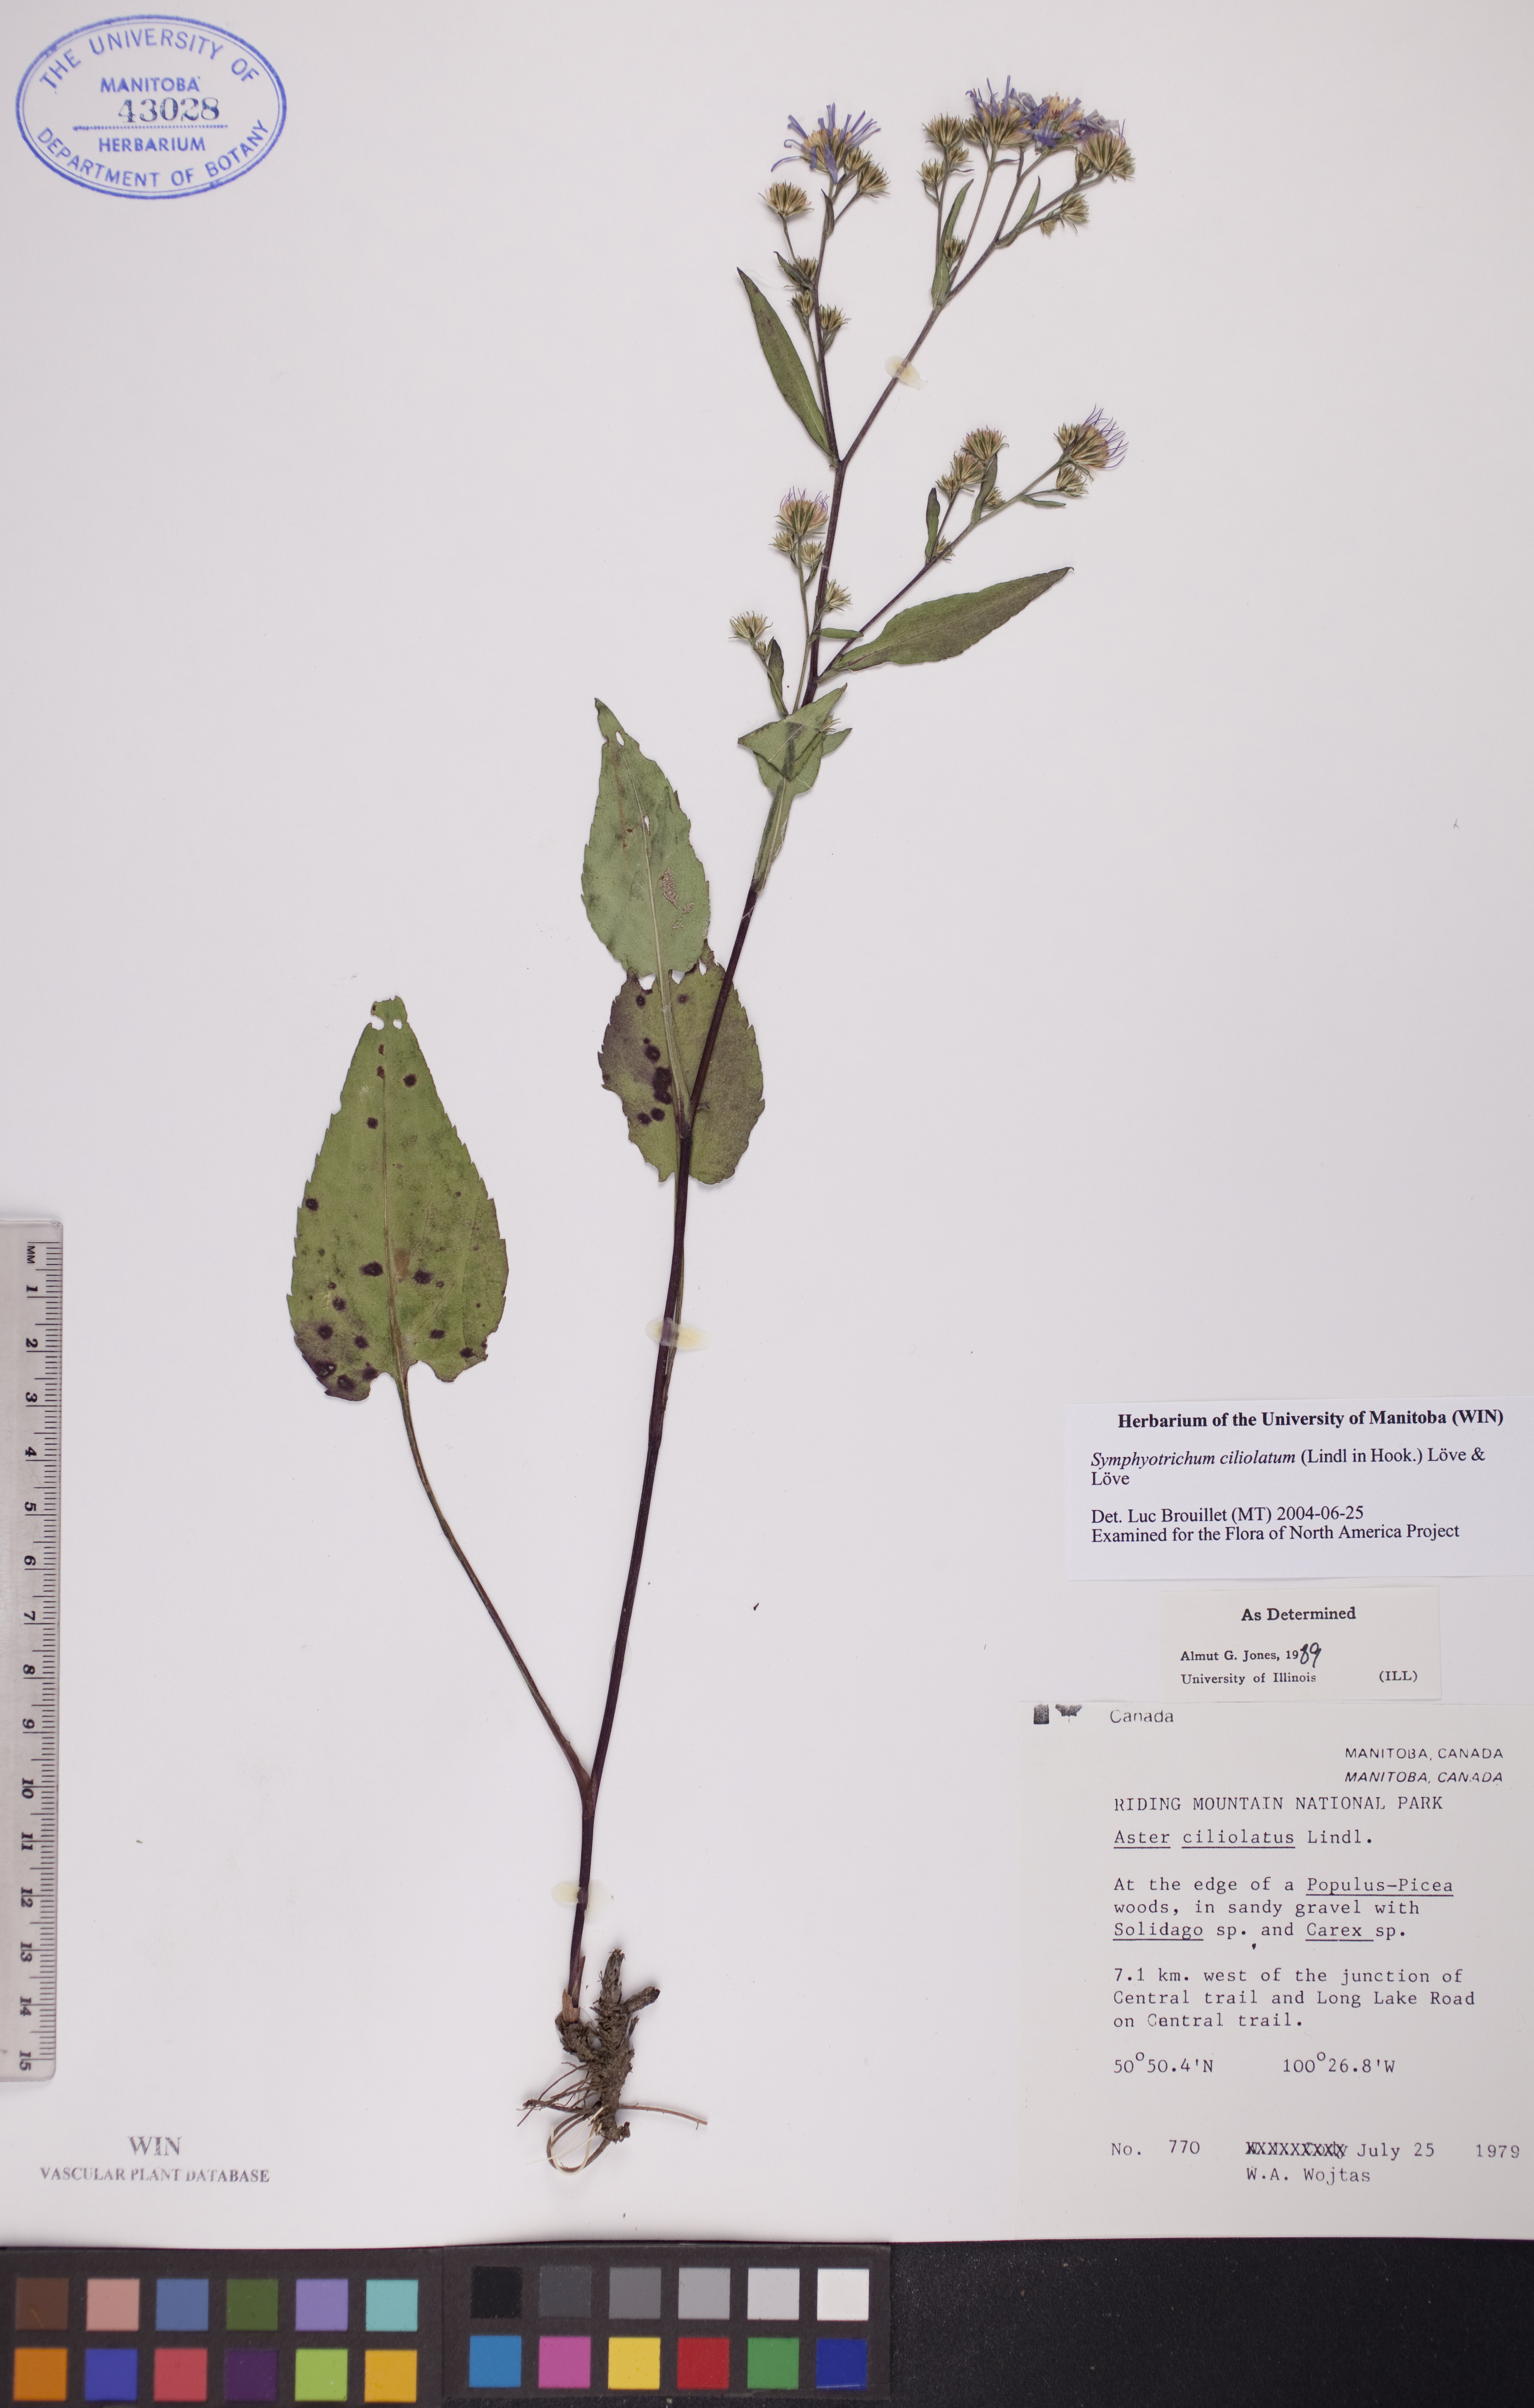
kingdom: Plantae
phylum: Tracheophyta
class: Magnoliopsida
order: Asterales
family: Asteraceae
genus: Symphyotrichum
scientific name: Symphyotrichum ciliolatum
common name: Fringed blue aster
